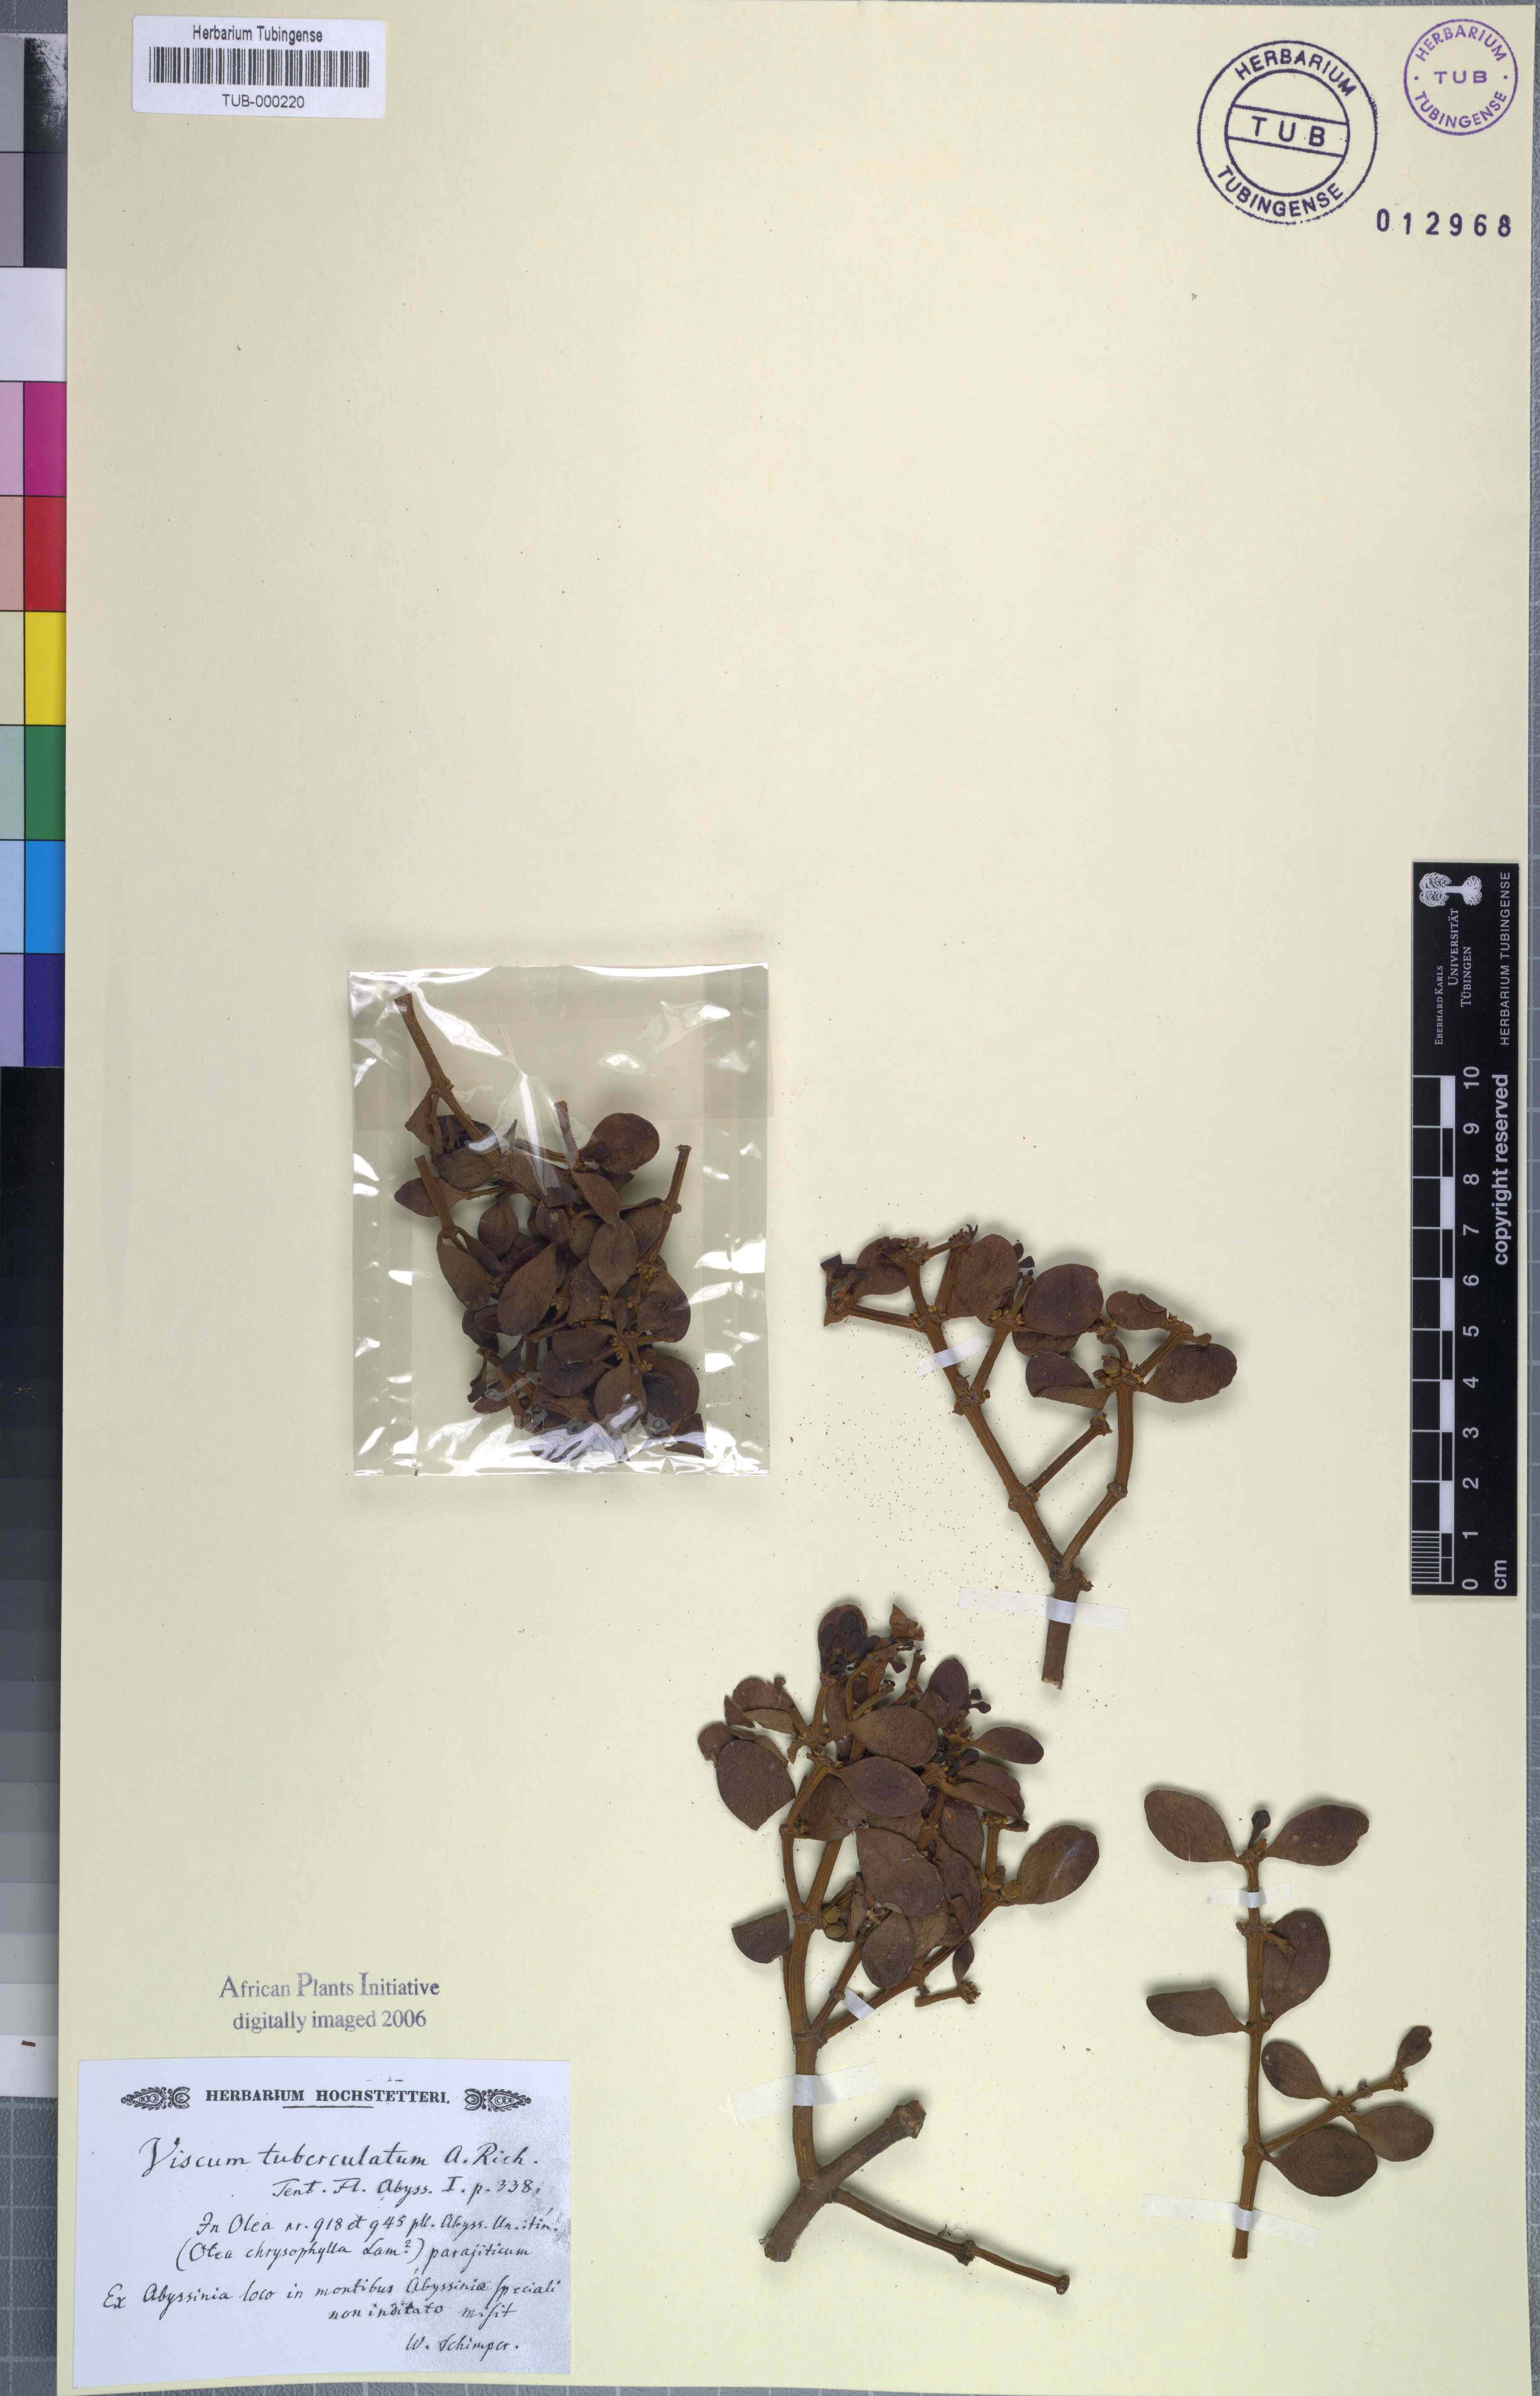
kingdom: Plantae
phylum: Tracheophyta
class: Magnoliopsida
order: Santalales
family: Viscaceae
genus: Viscum
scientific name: Viscum tuberculatum
